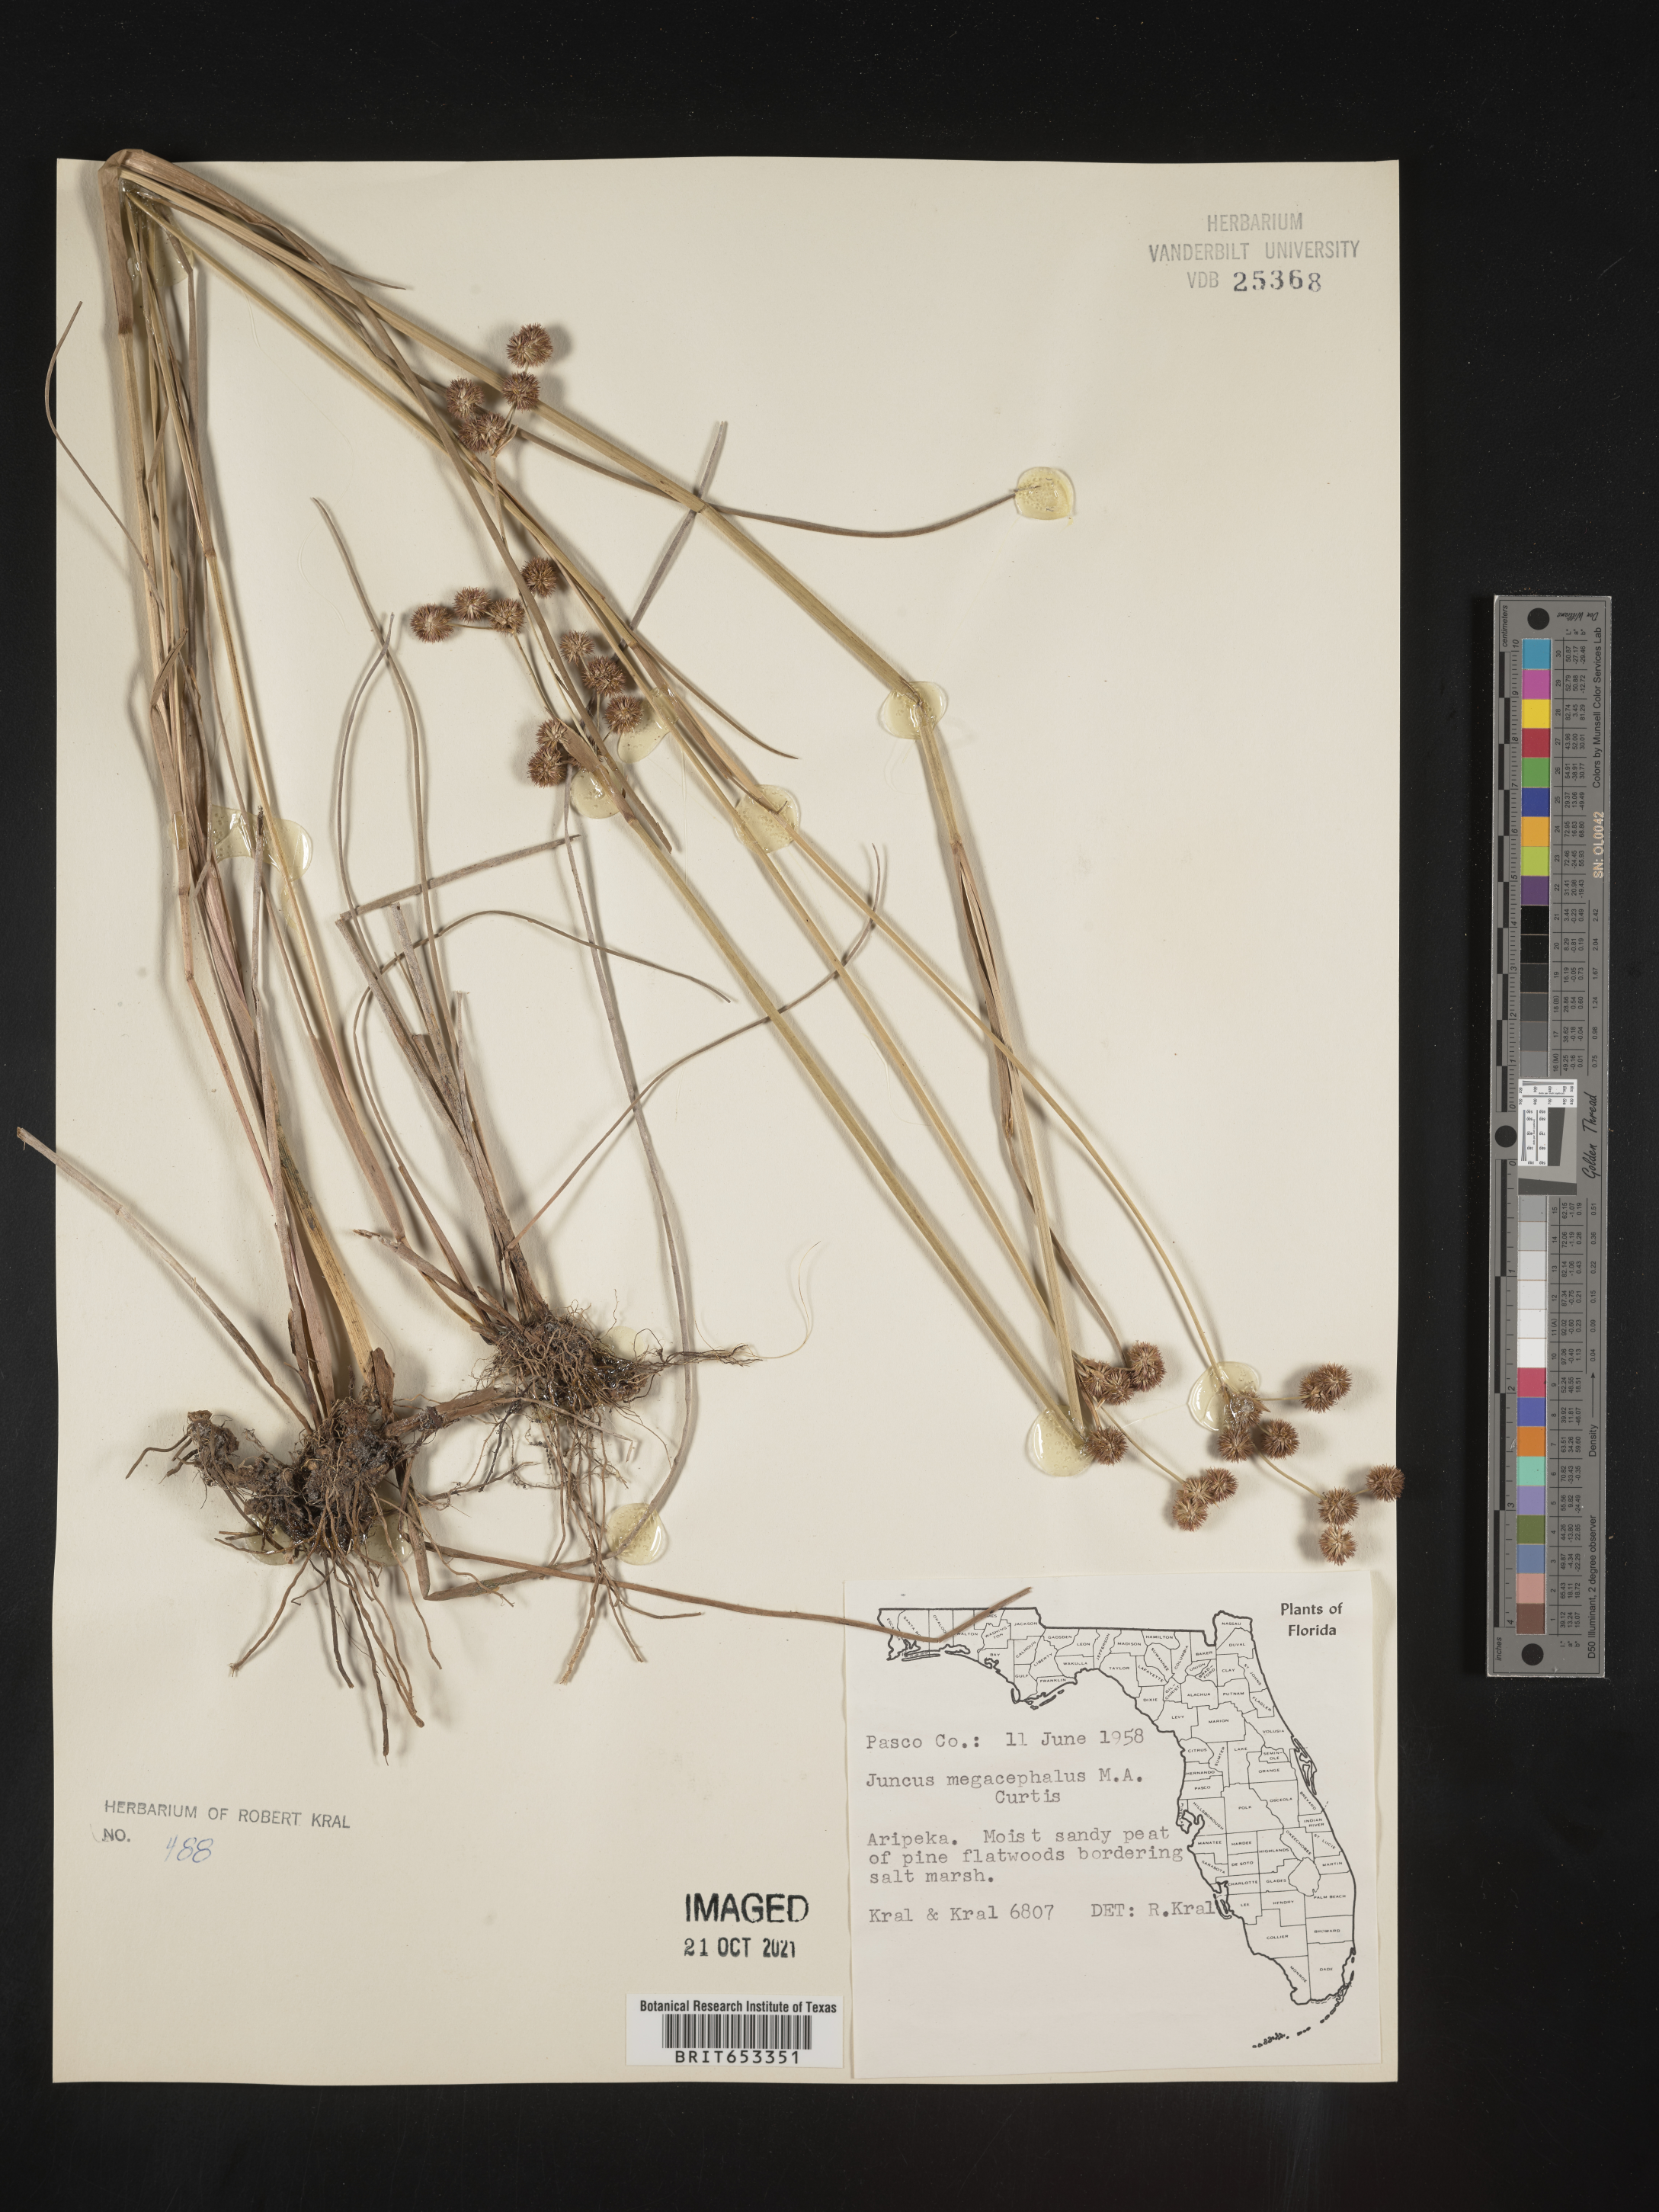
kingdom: Plantae
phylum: Tracheophyta
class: Liliopsida
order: Poales
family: Juncaceae
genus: Juncus
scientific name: Juncus megacephalus
